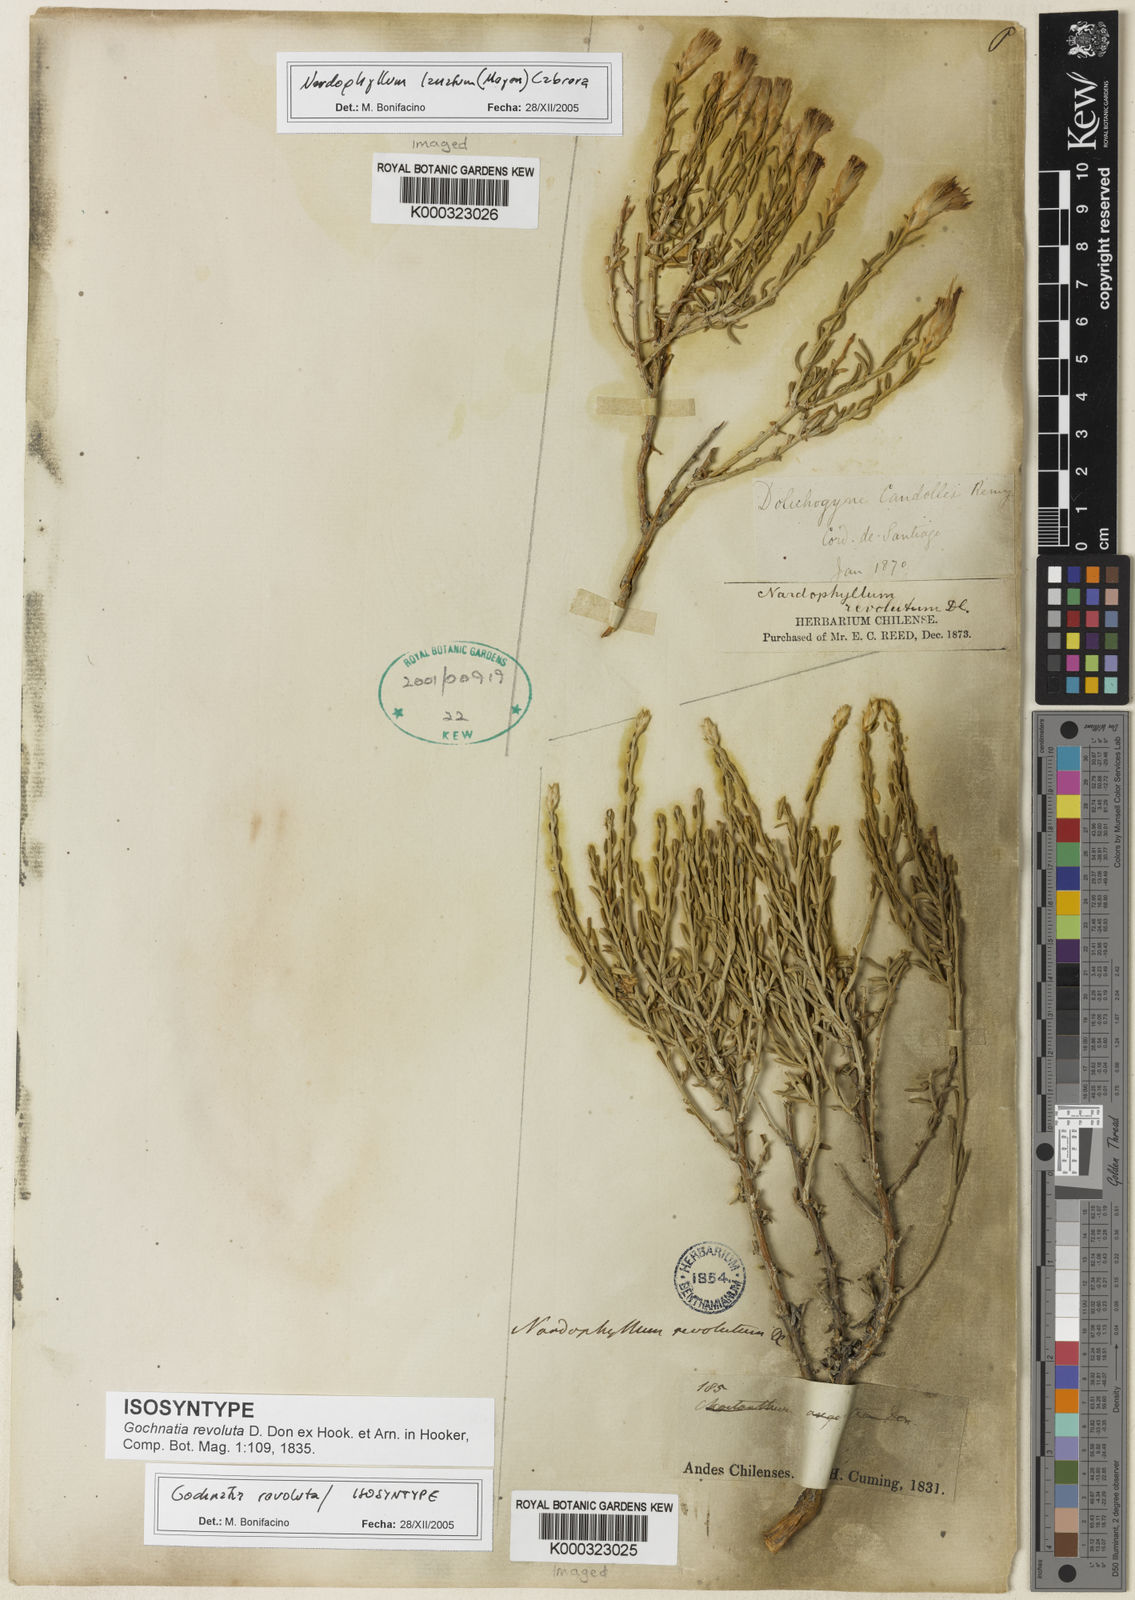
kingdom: Plantae
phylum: Tracheophyta
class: Magnoliopsida
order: Asterales
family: Asteraceae
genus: Nardophyllum
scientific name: Nardophyllum lanatum
